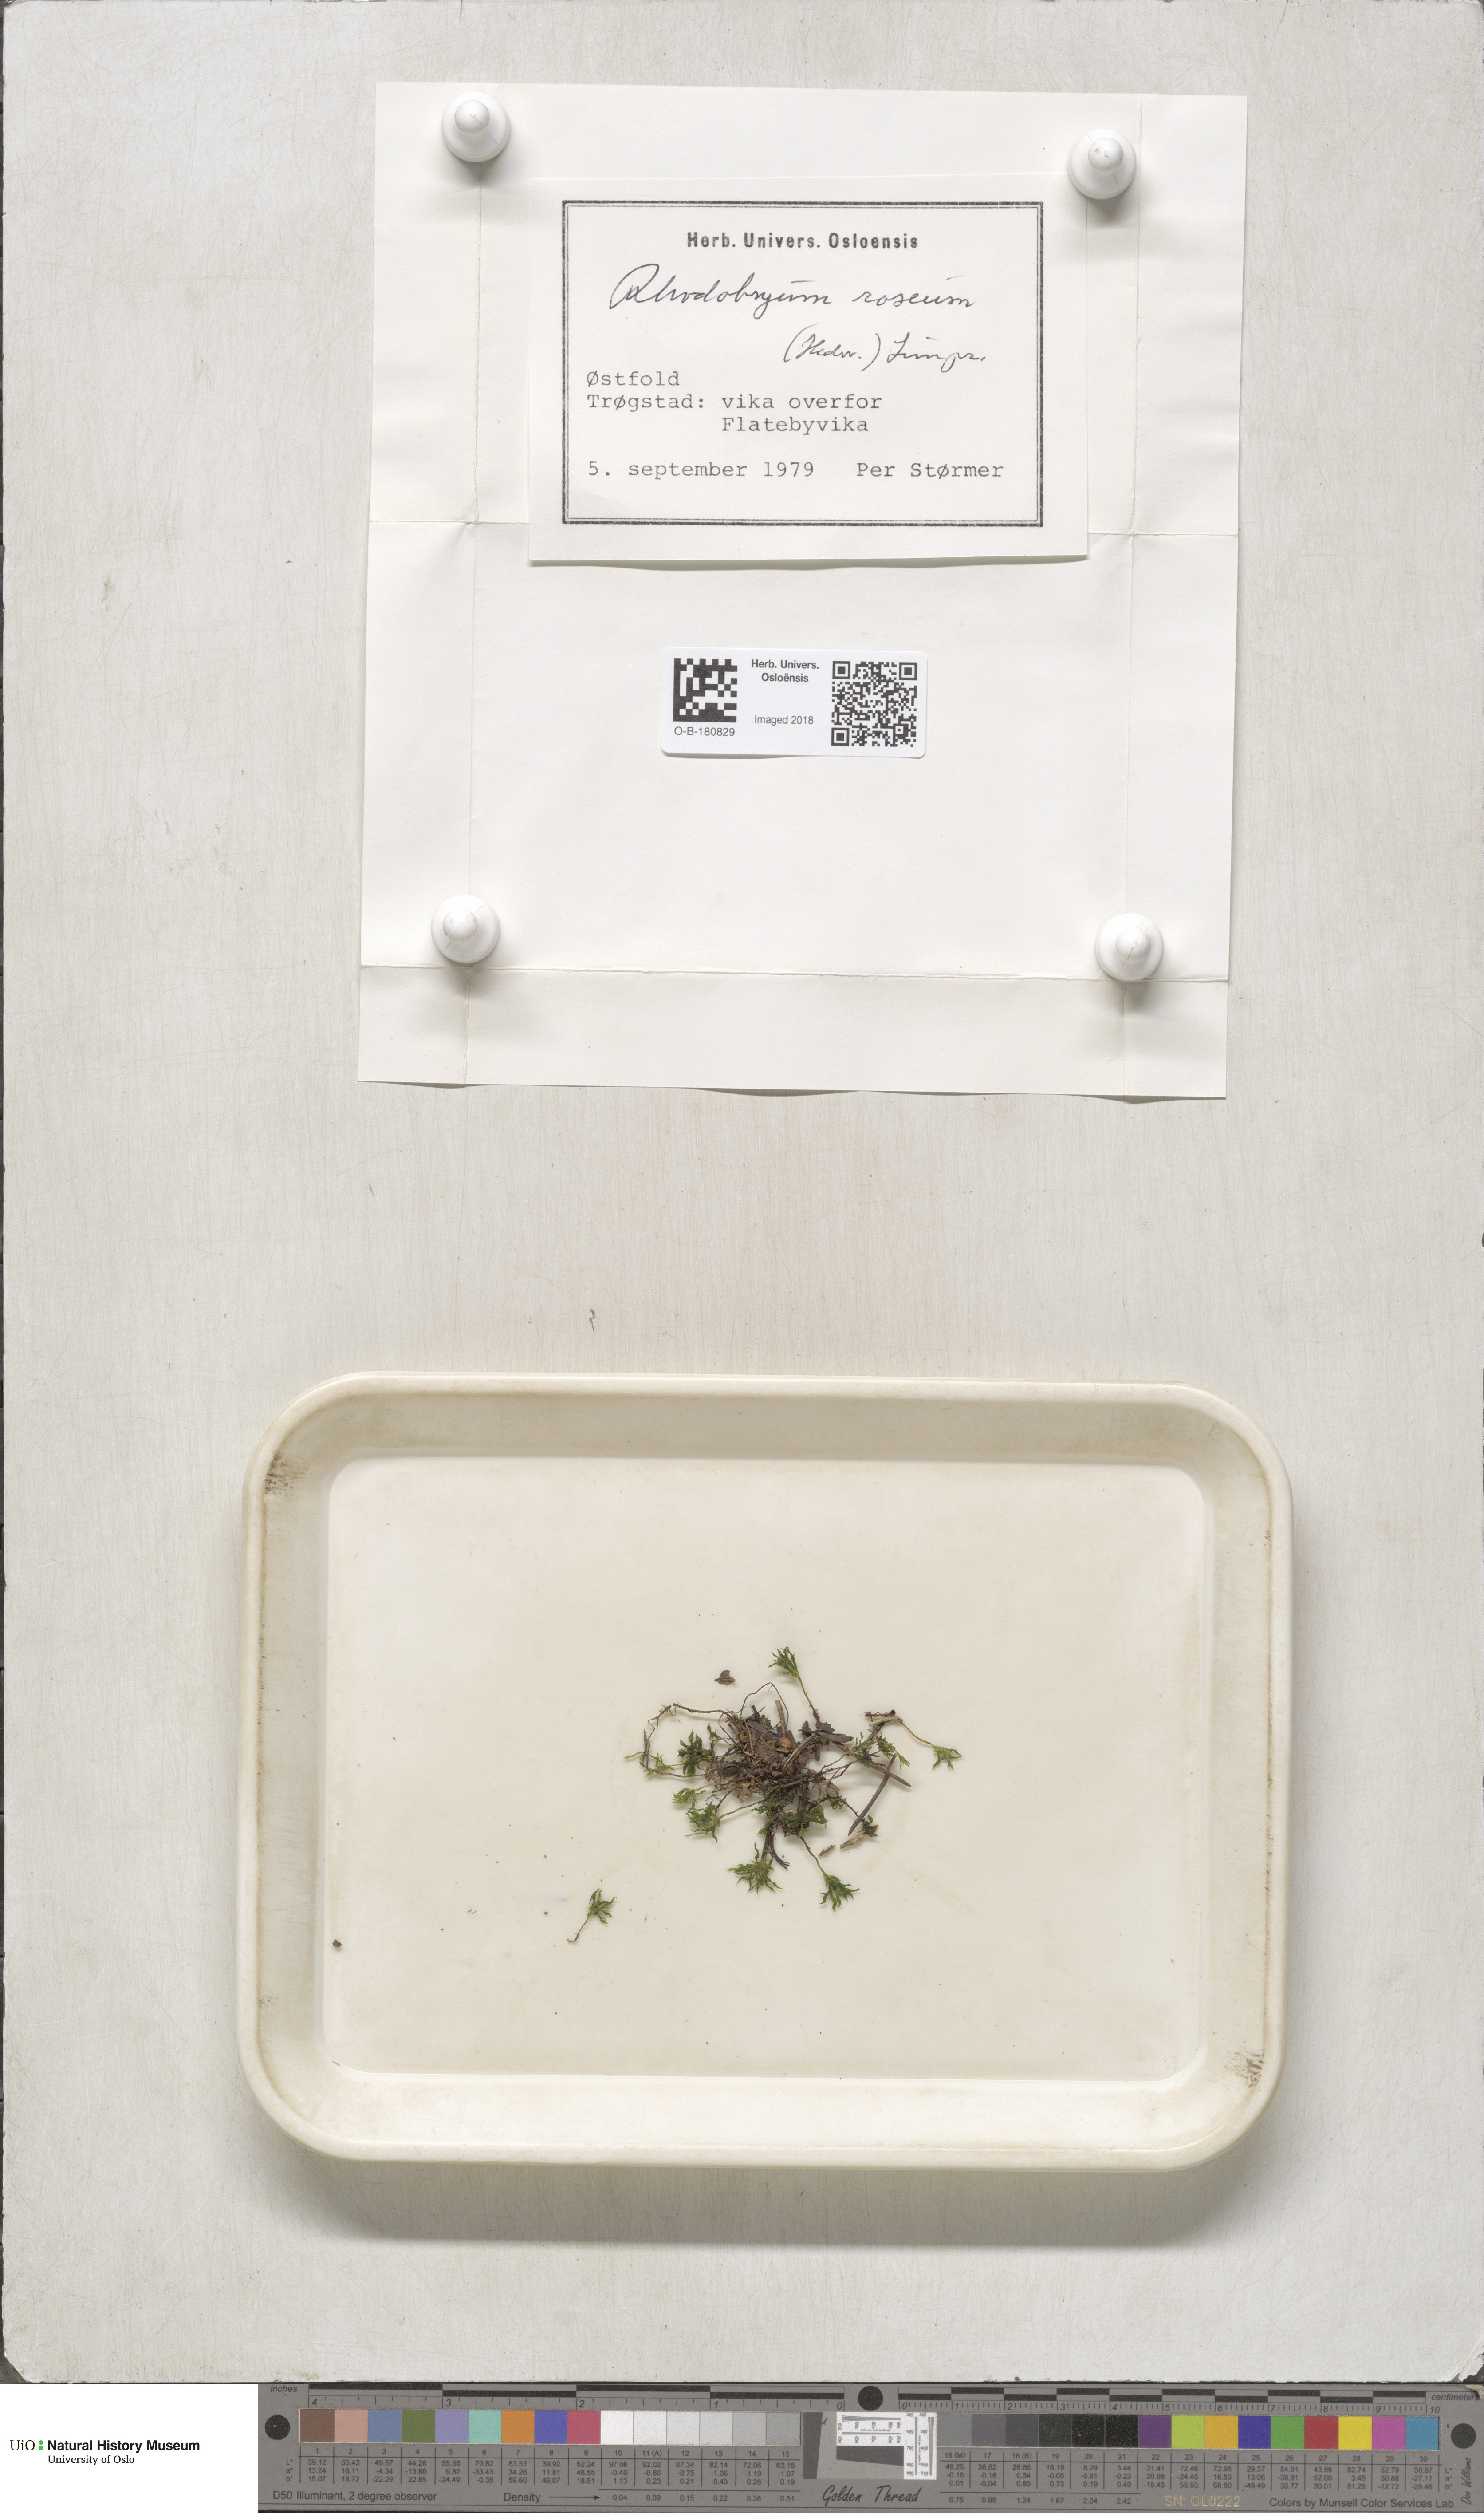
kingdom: Plantae
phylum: Bryophyta
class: Bryopsida
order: Bryales
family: Bryaceae
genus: Rhodobryum
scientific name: Rhodobryum roseum
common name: Rose-moss
